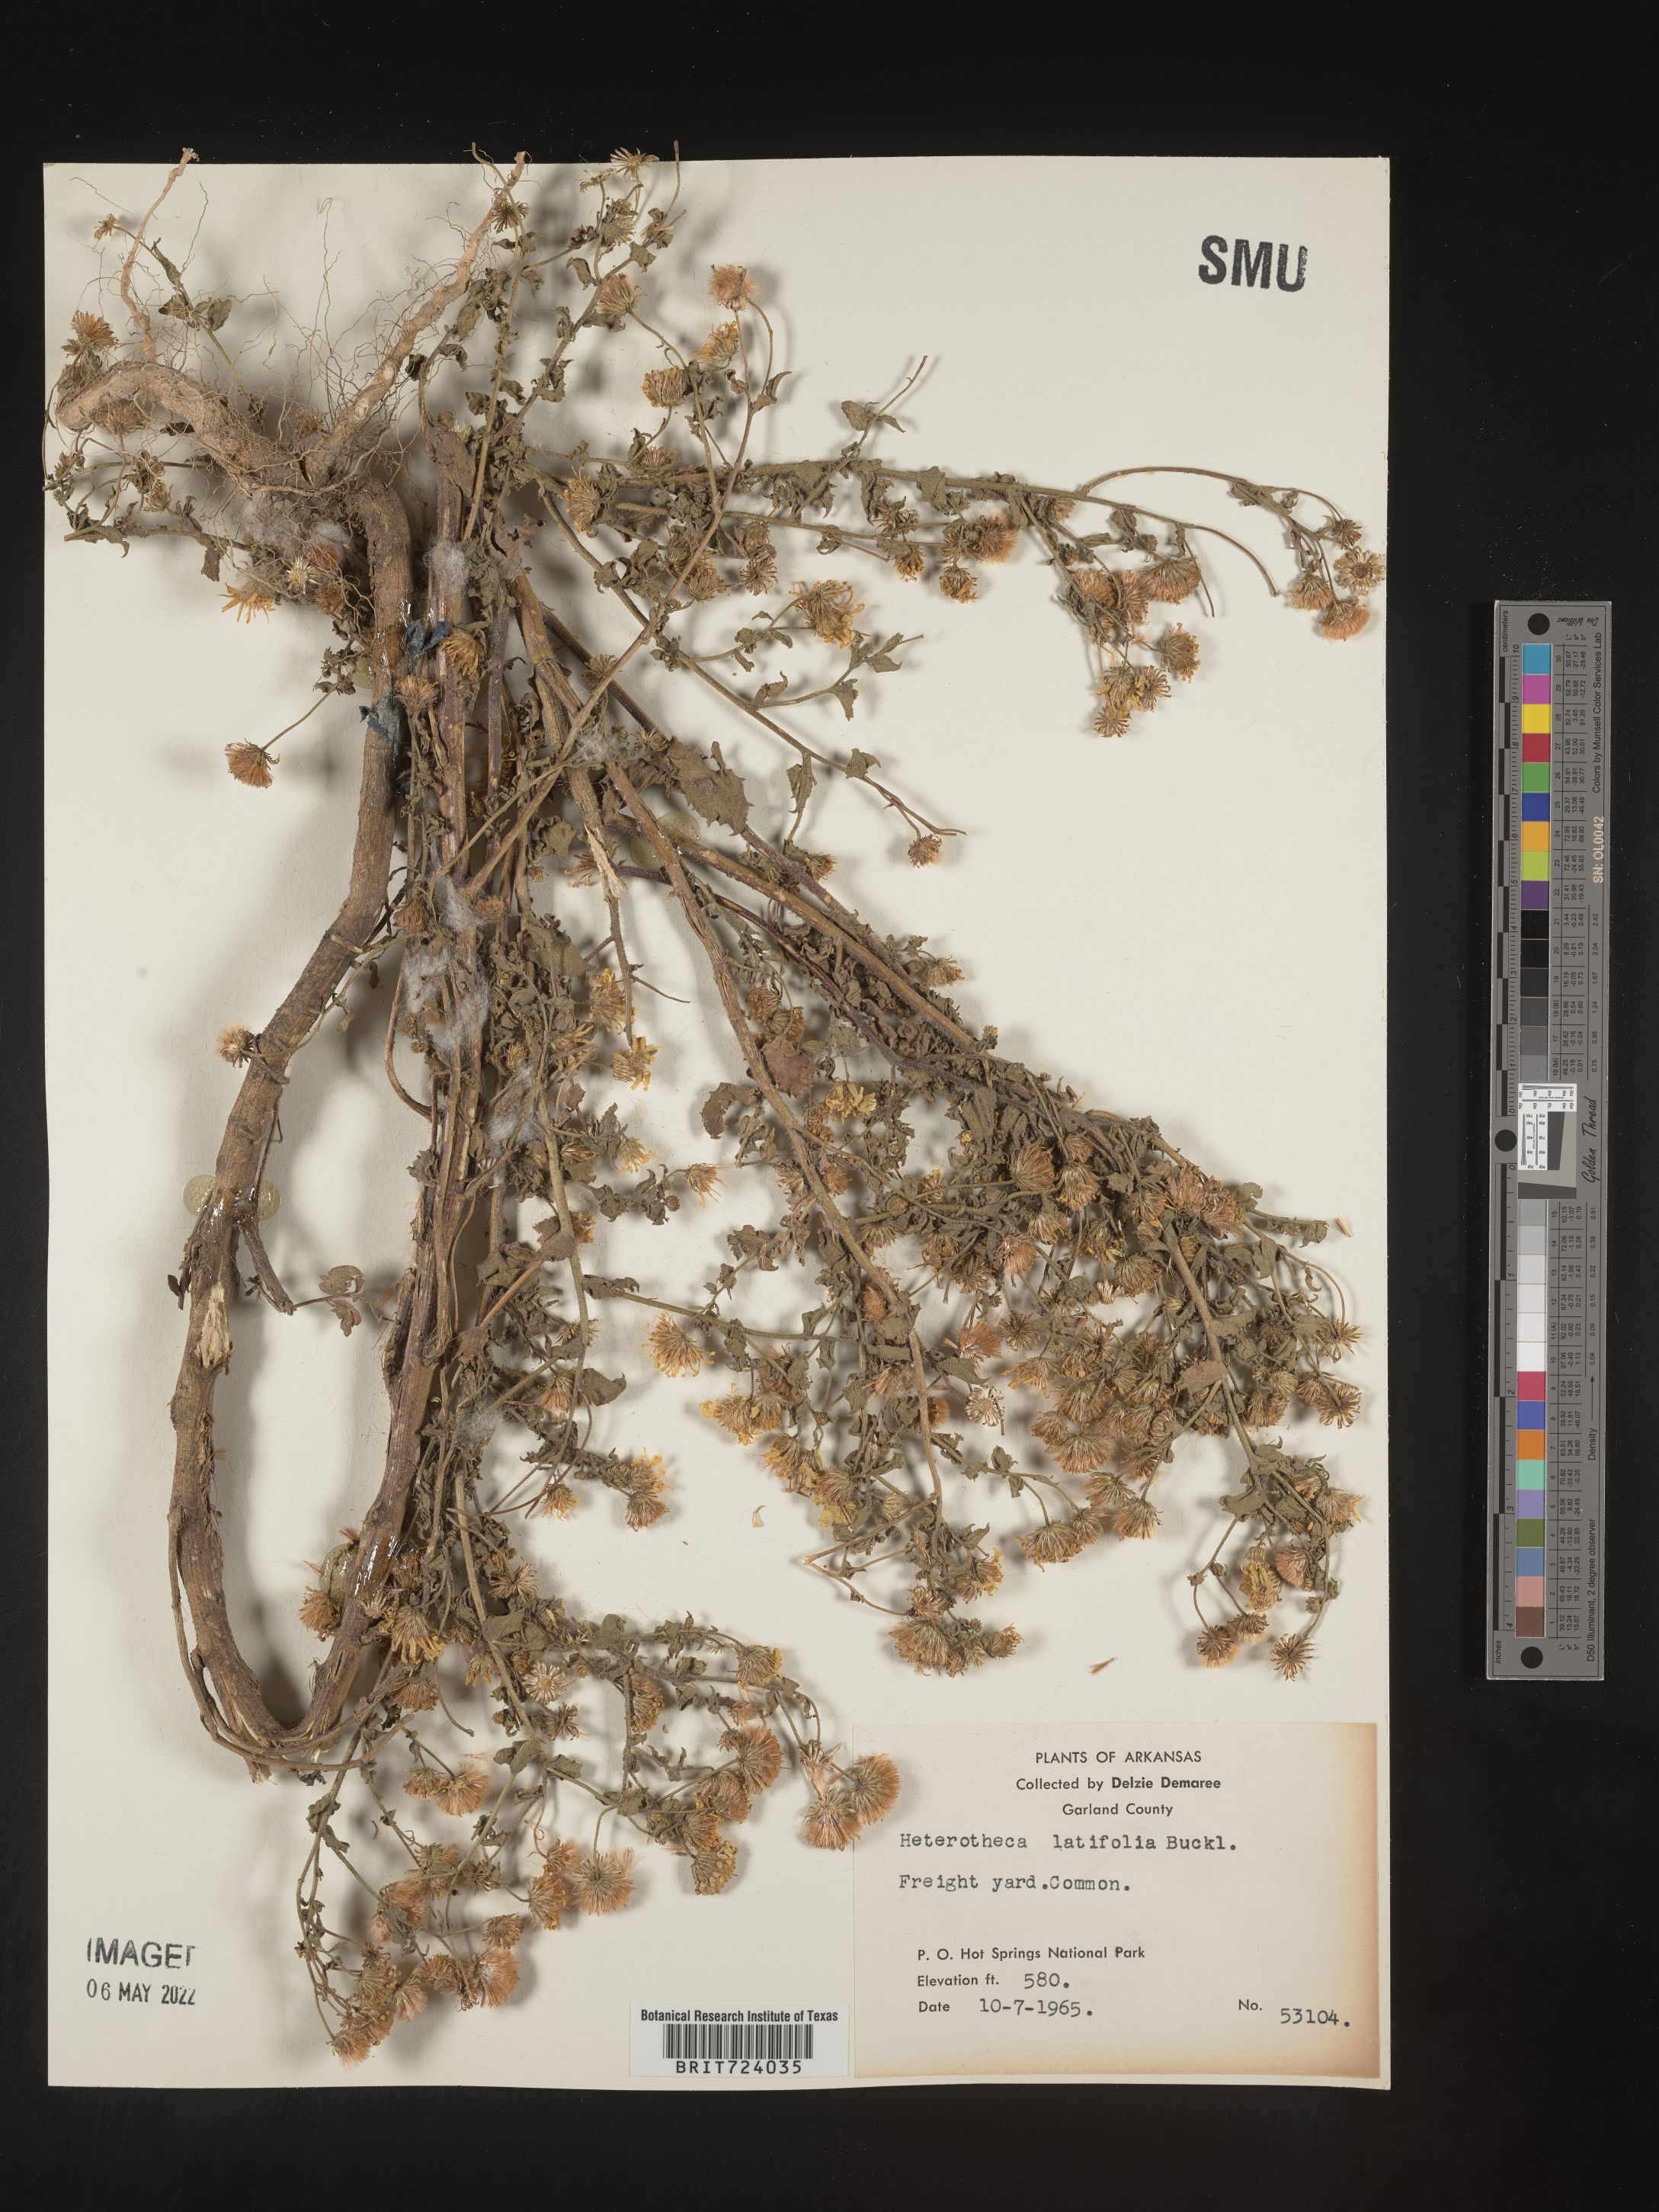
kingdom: Plantae
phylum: Tracheophyta
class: Magnoliopsida
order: Asterales
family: Asteraceae
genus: Heterotheca
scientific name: Heterotheca subaxillaris
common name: Camphorweed
